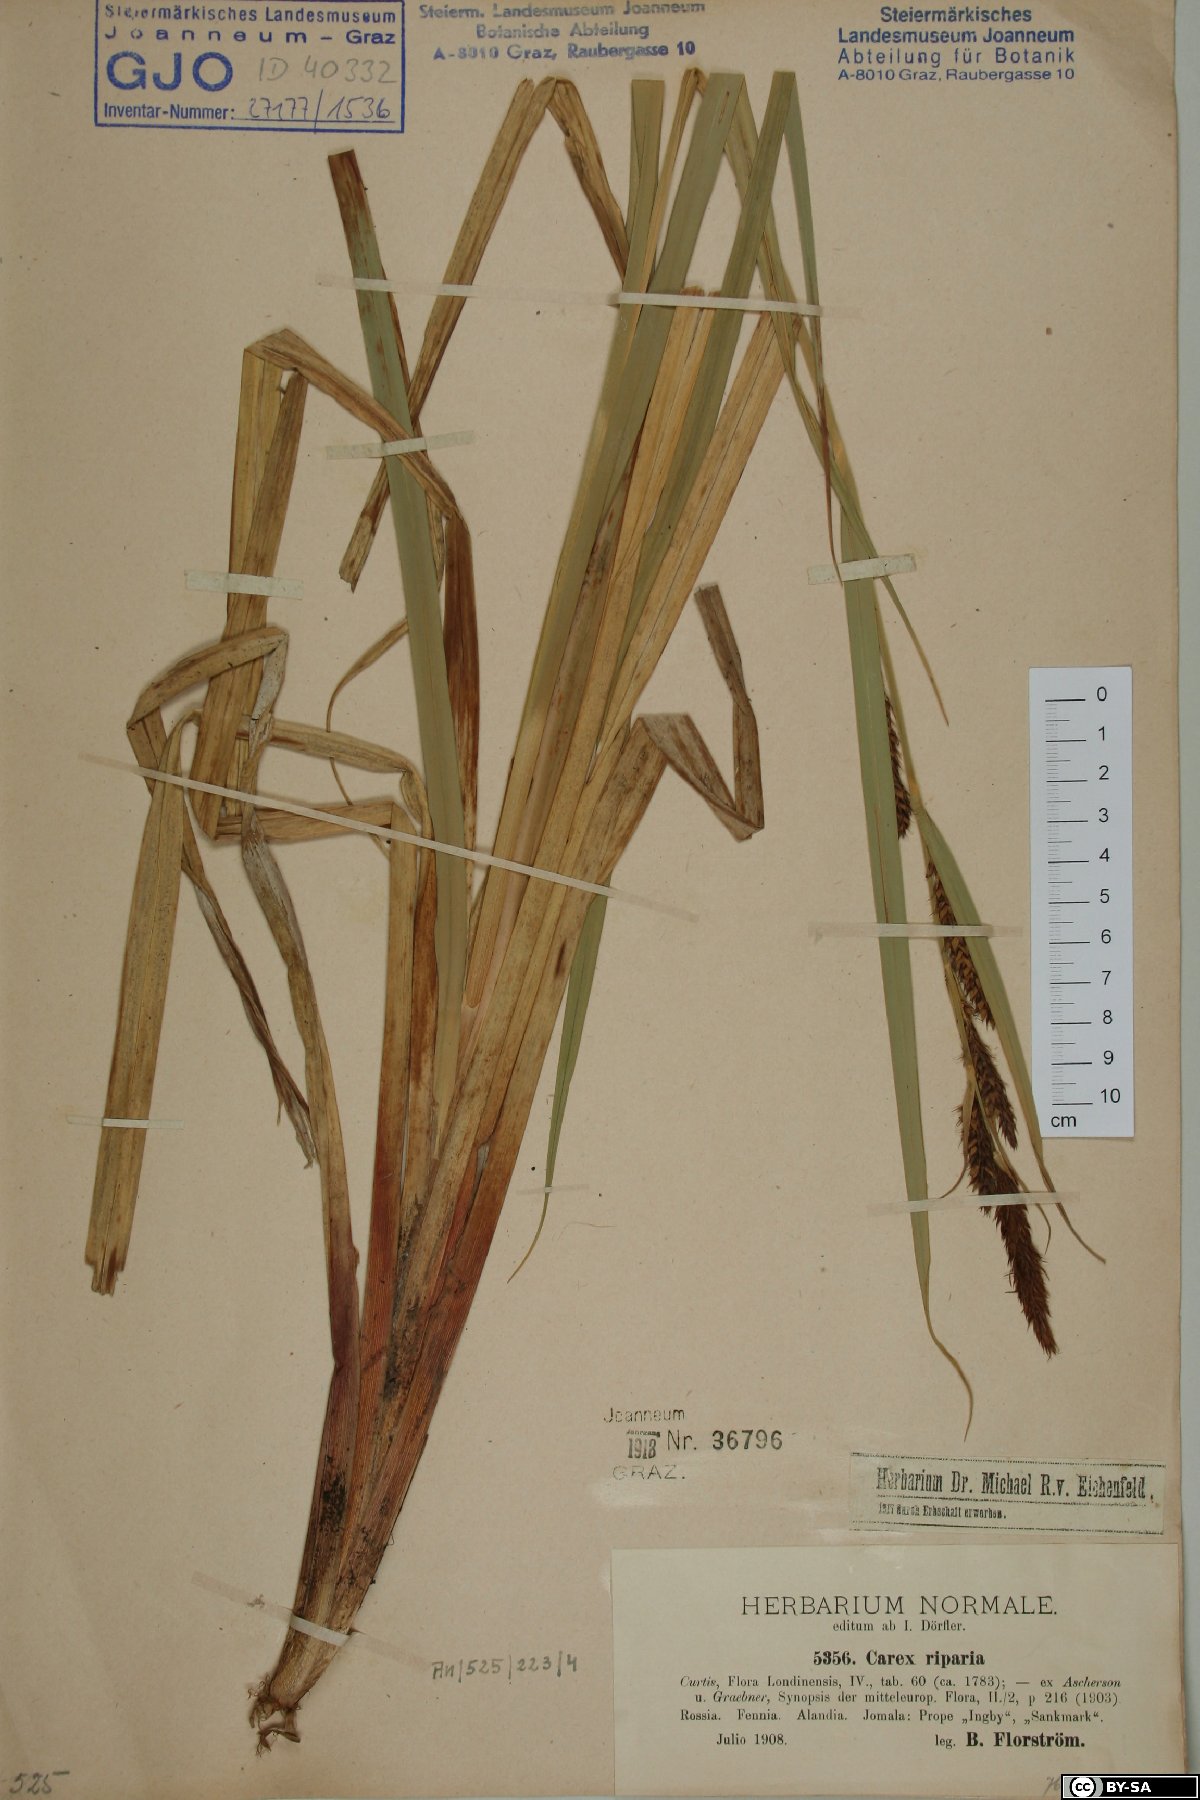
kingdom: Plantae
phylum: Tracheophyta
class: Liliopsida
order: Poales
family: Cyperaceae
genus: Carex
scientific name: Carex riparia
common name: Greater pond-sedge
